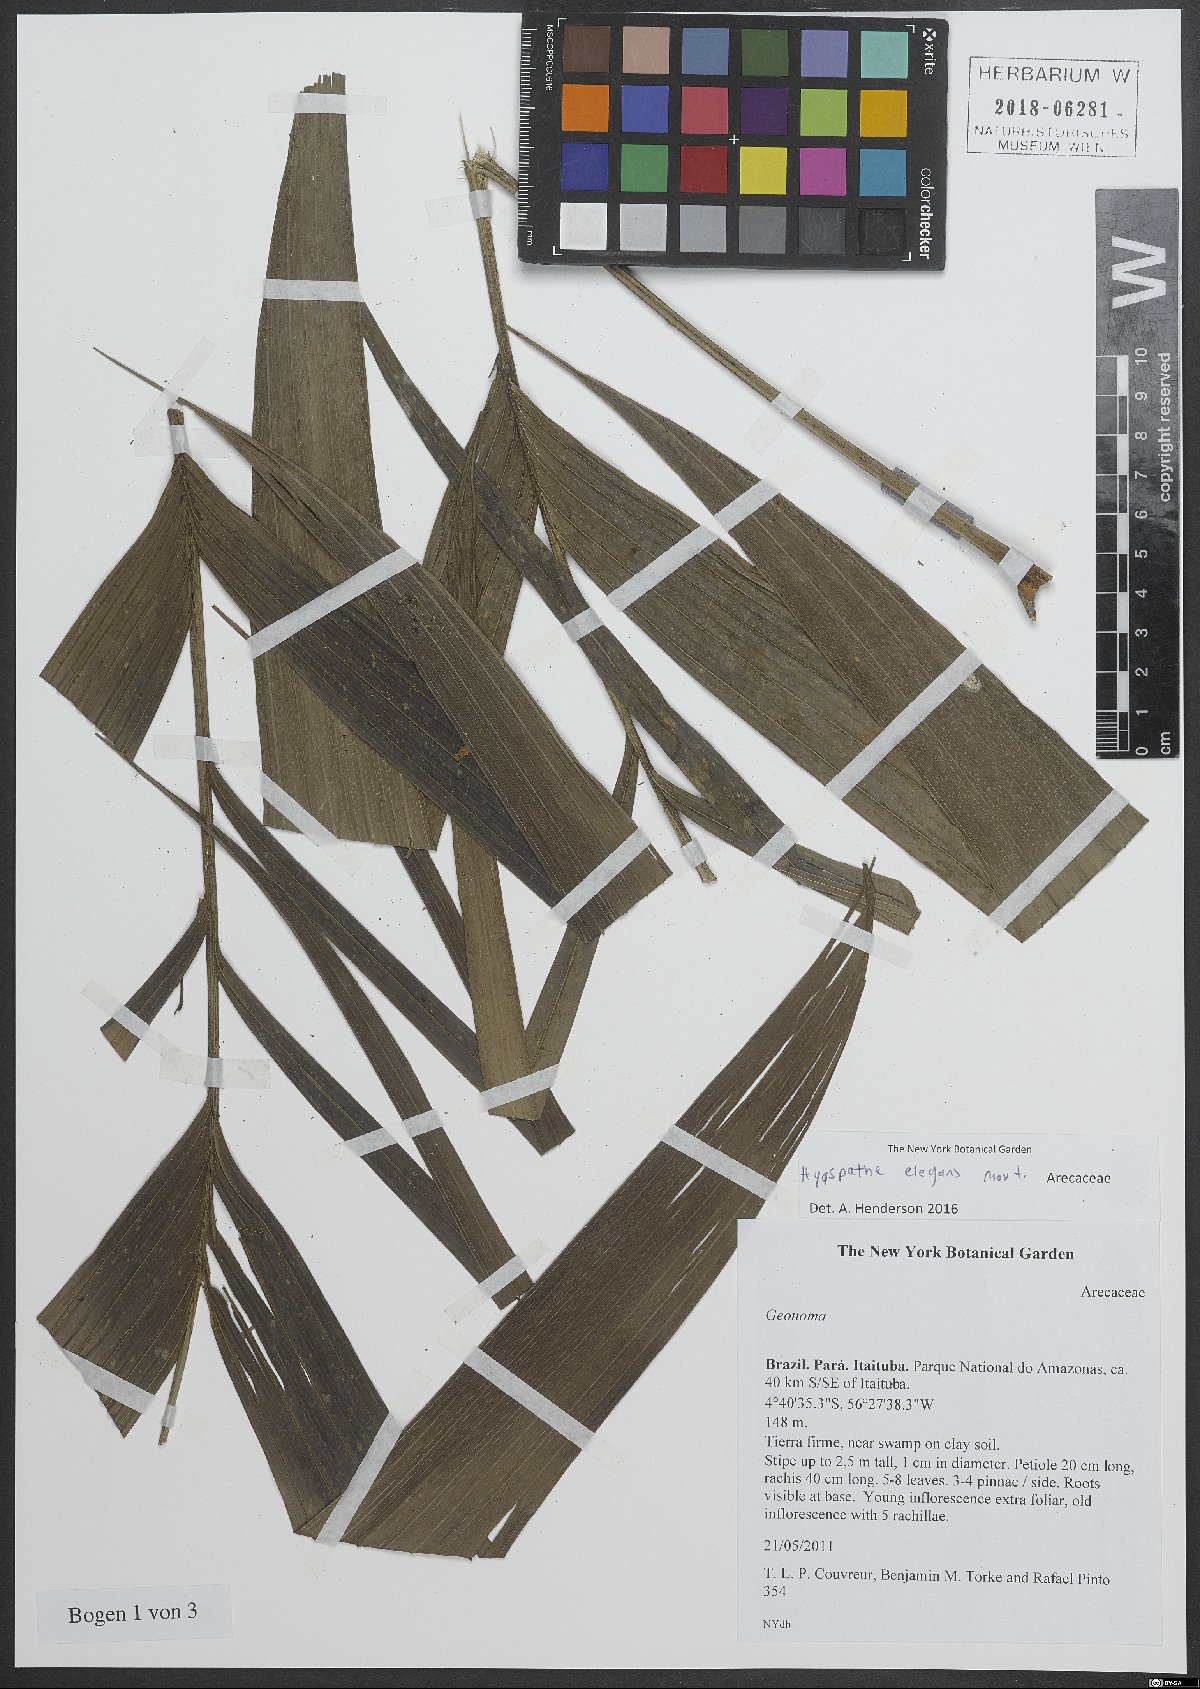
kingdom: Plantae
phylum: Tracheophyta
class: Liliopsida
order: Arecales
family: Arecaceae
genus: Hyospathe
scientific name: Hyospathe elegans
